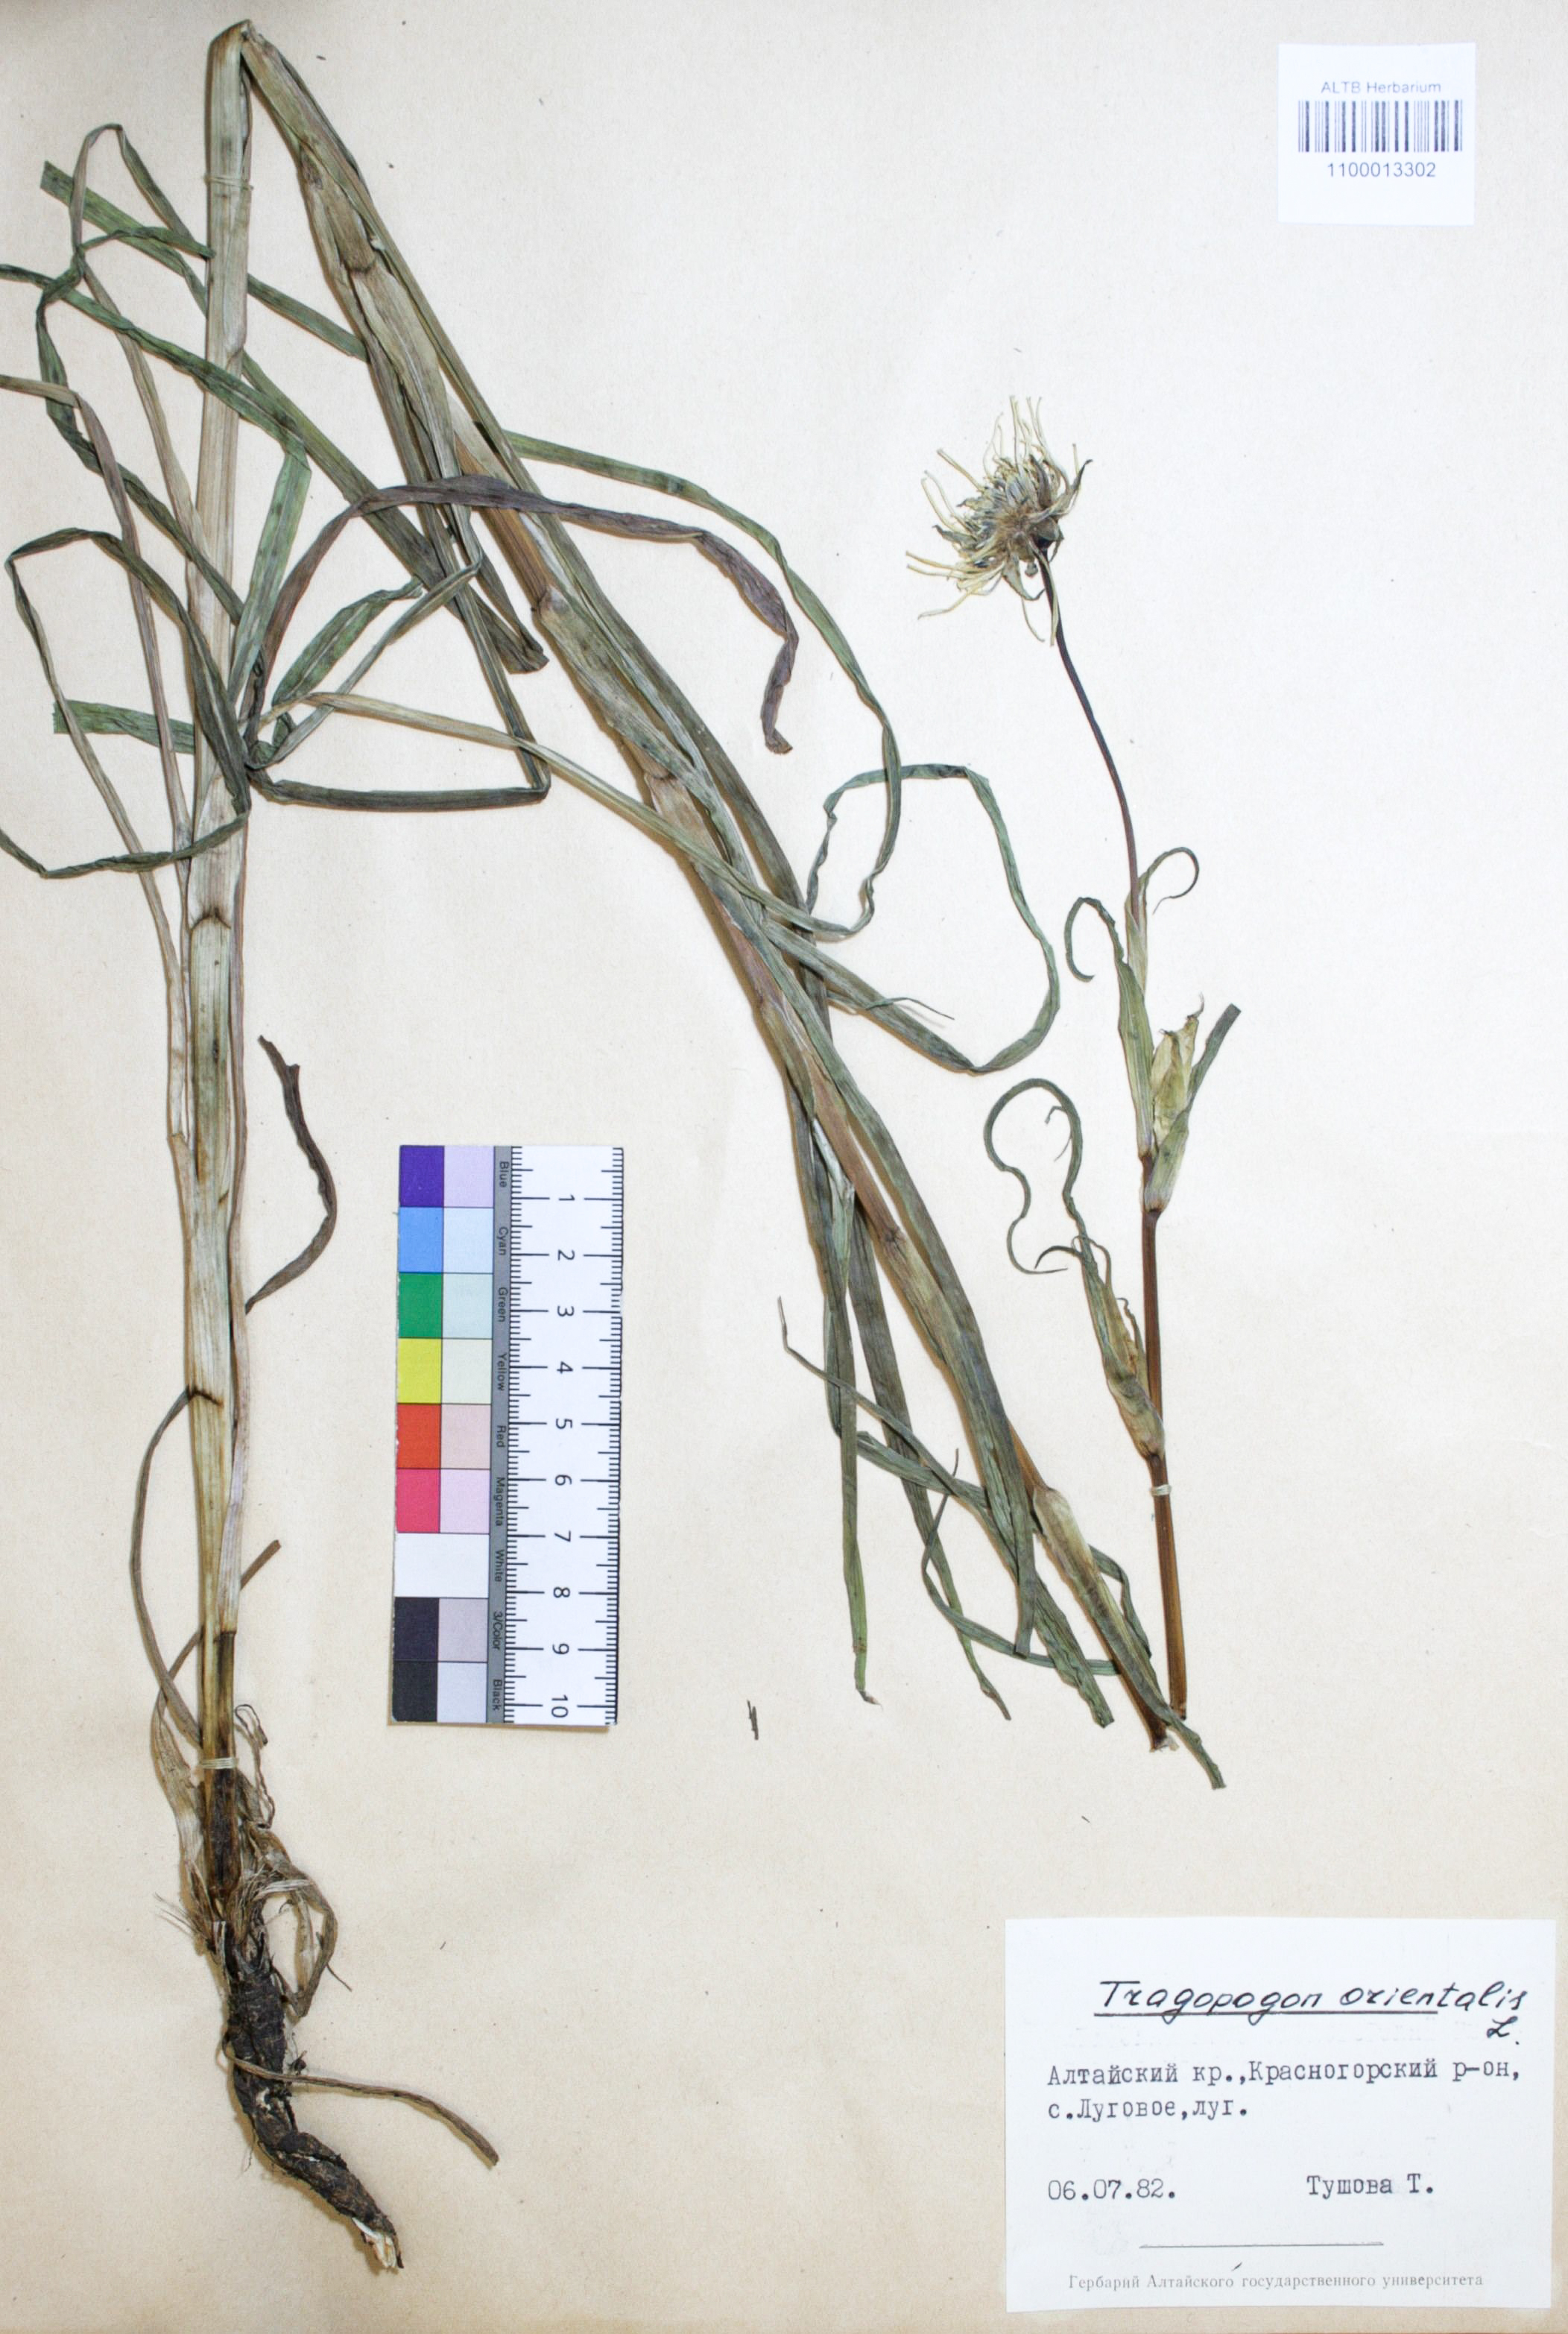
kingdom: Plantae
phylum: Tracheophyta
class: Magnoliopsida
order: Asterales
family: Asteraceae
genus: Tragopogon
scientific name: Tragopogon orientalis
